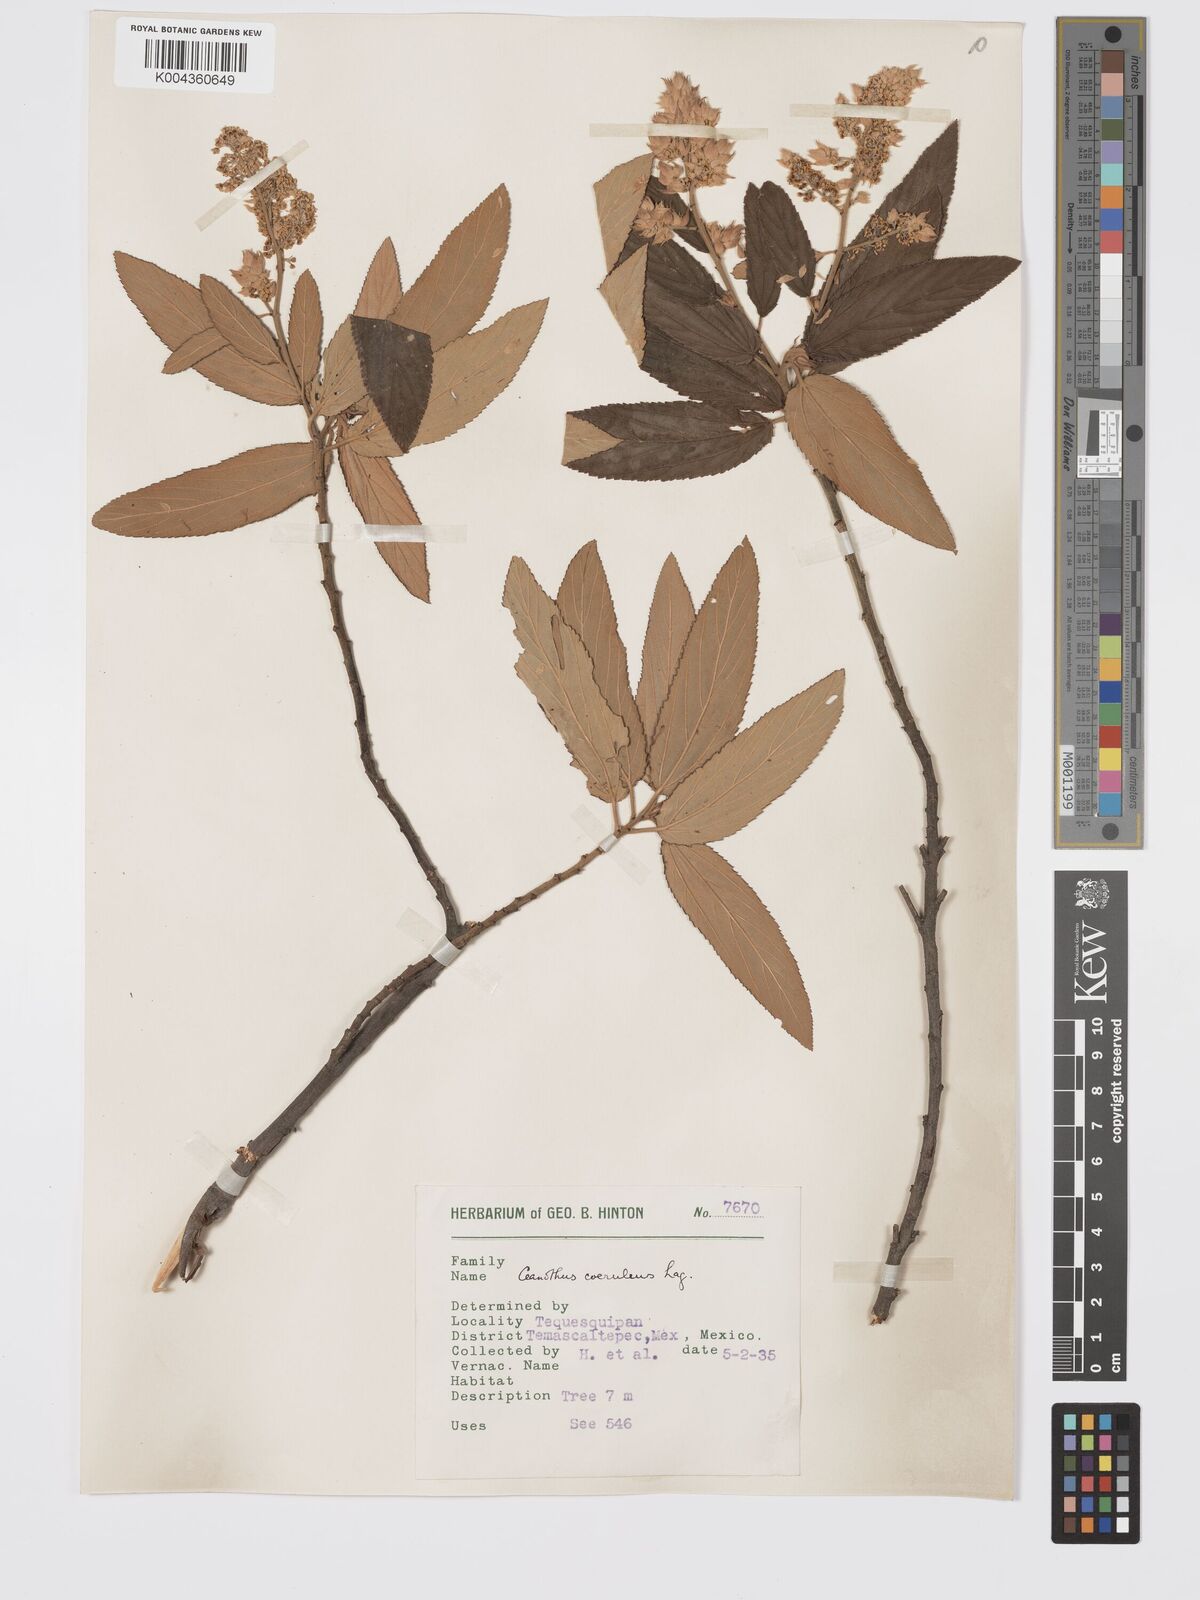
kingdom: Plantae
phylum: Tracheophyta
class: Magnoliopsida
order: Rosales
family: Rhamnaceae
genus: Ceanothus
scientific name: Ceanothus caeruleus
